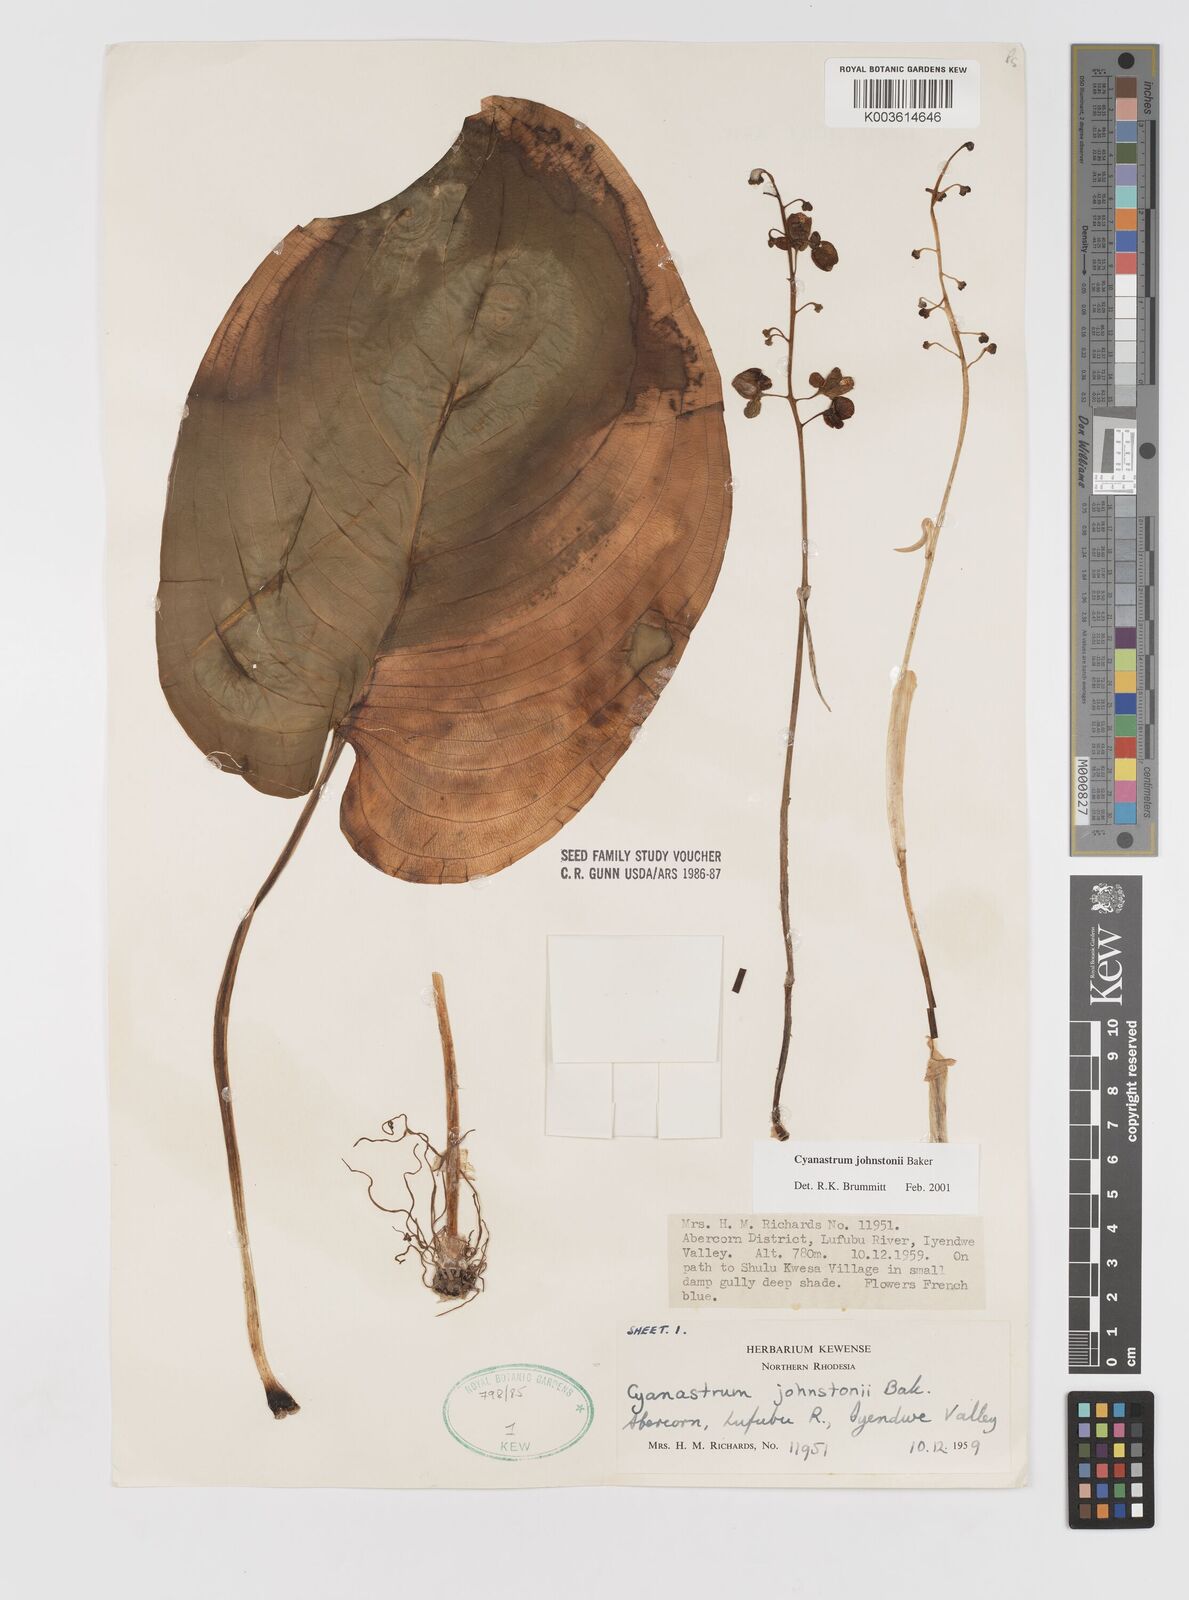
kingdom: Plantae
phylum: Tracheophyta
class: Liliopsida
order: Asparagales
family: Tecophilaeaceae
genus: Cyanastrum
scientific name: Cyanastrum johnstonii
